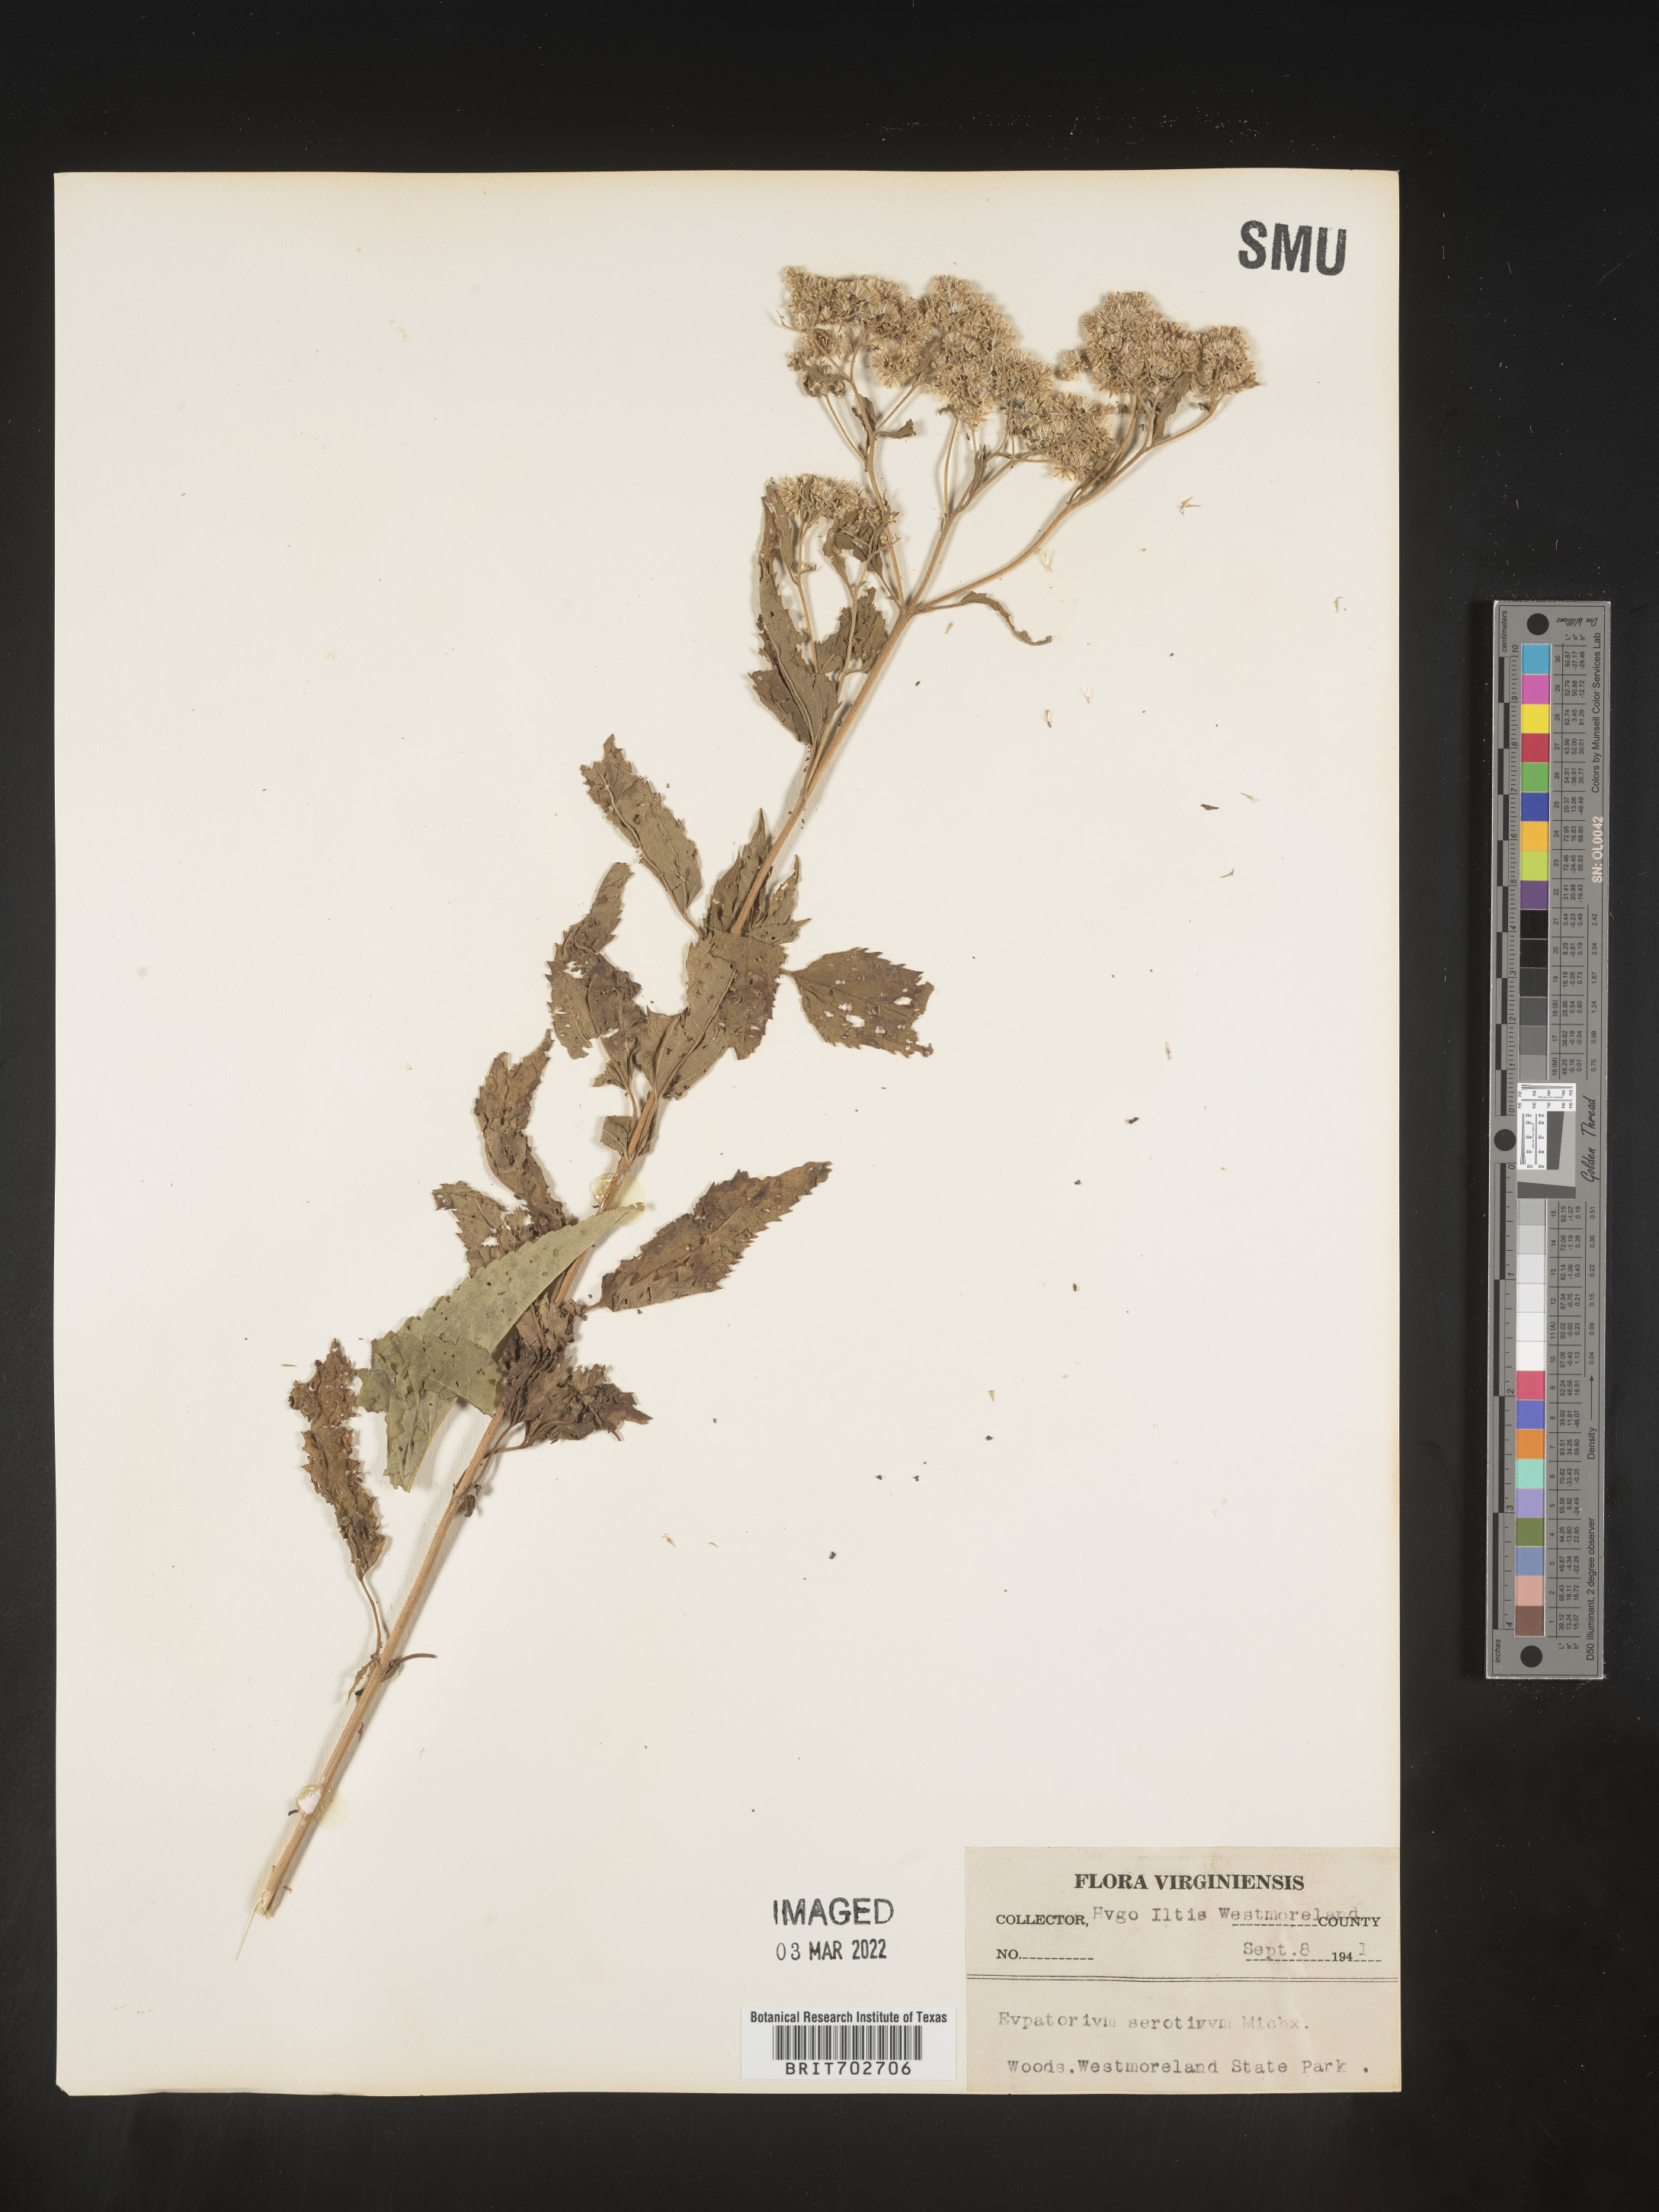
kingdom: Plantae
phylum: Tracheophyta
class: Magnoliopsida
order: Asterales
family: Asteraceae
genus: Eupatorium
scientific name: Eupatorium serotinum
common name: Late boneset
